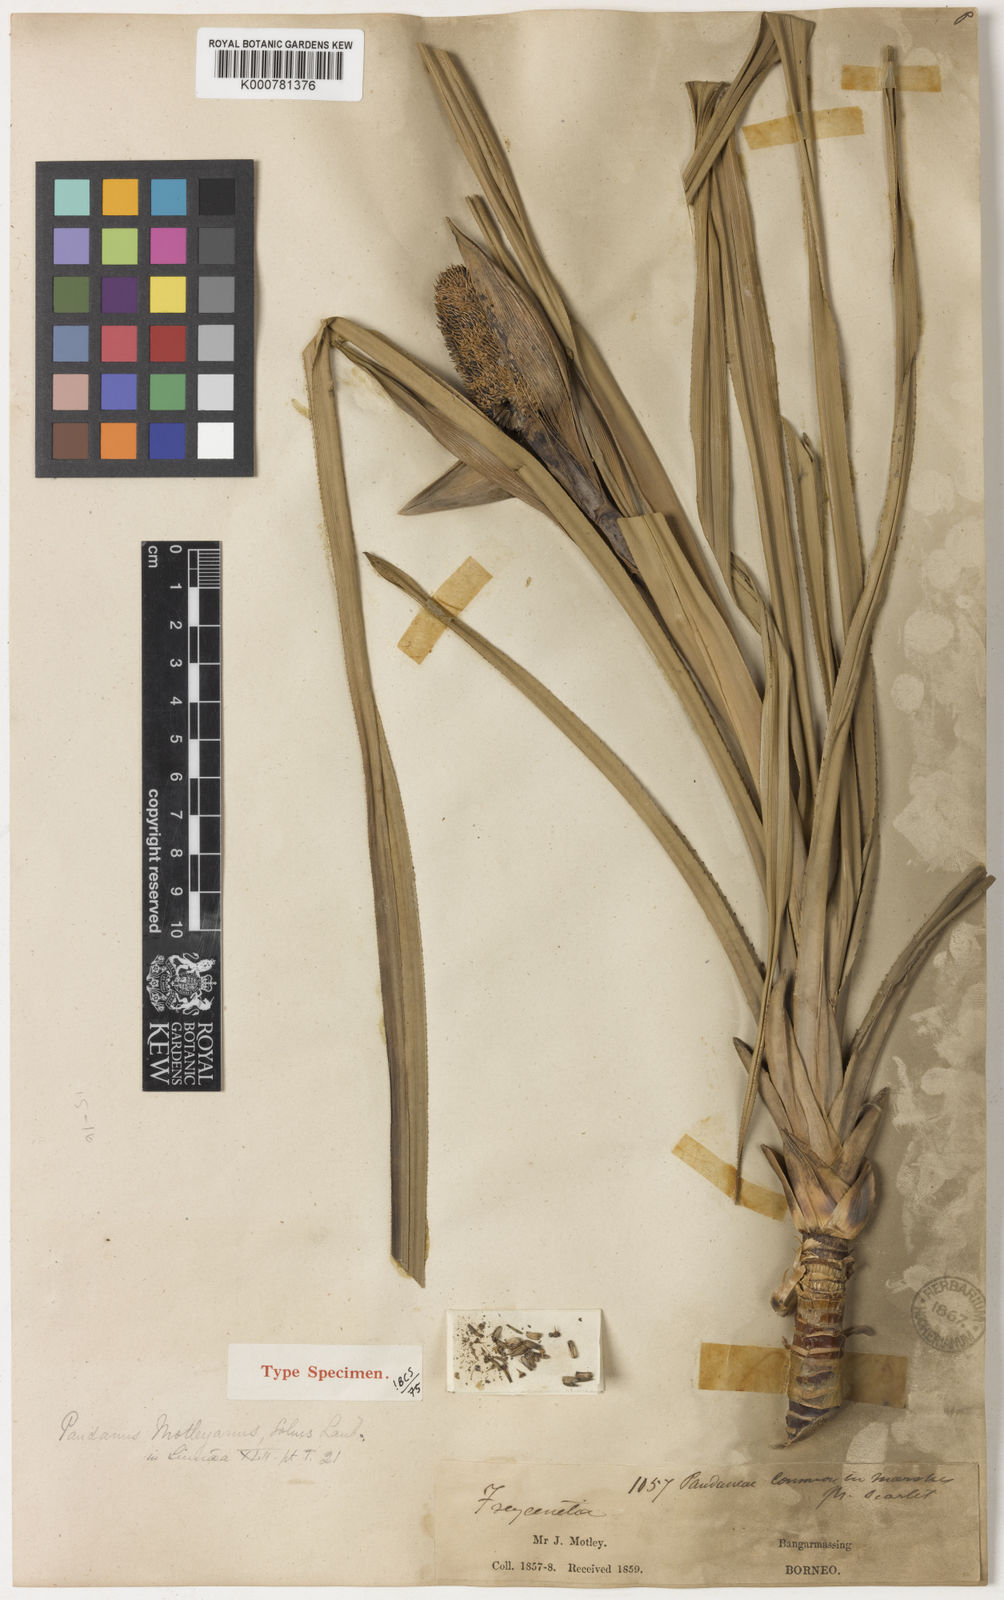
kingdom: Plantae
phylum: Tracheophyta
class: Liliopsida
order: Pandanales
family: Pandanaceae
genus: Pandanus
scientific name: Pandanus yvanii
